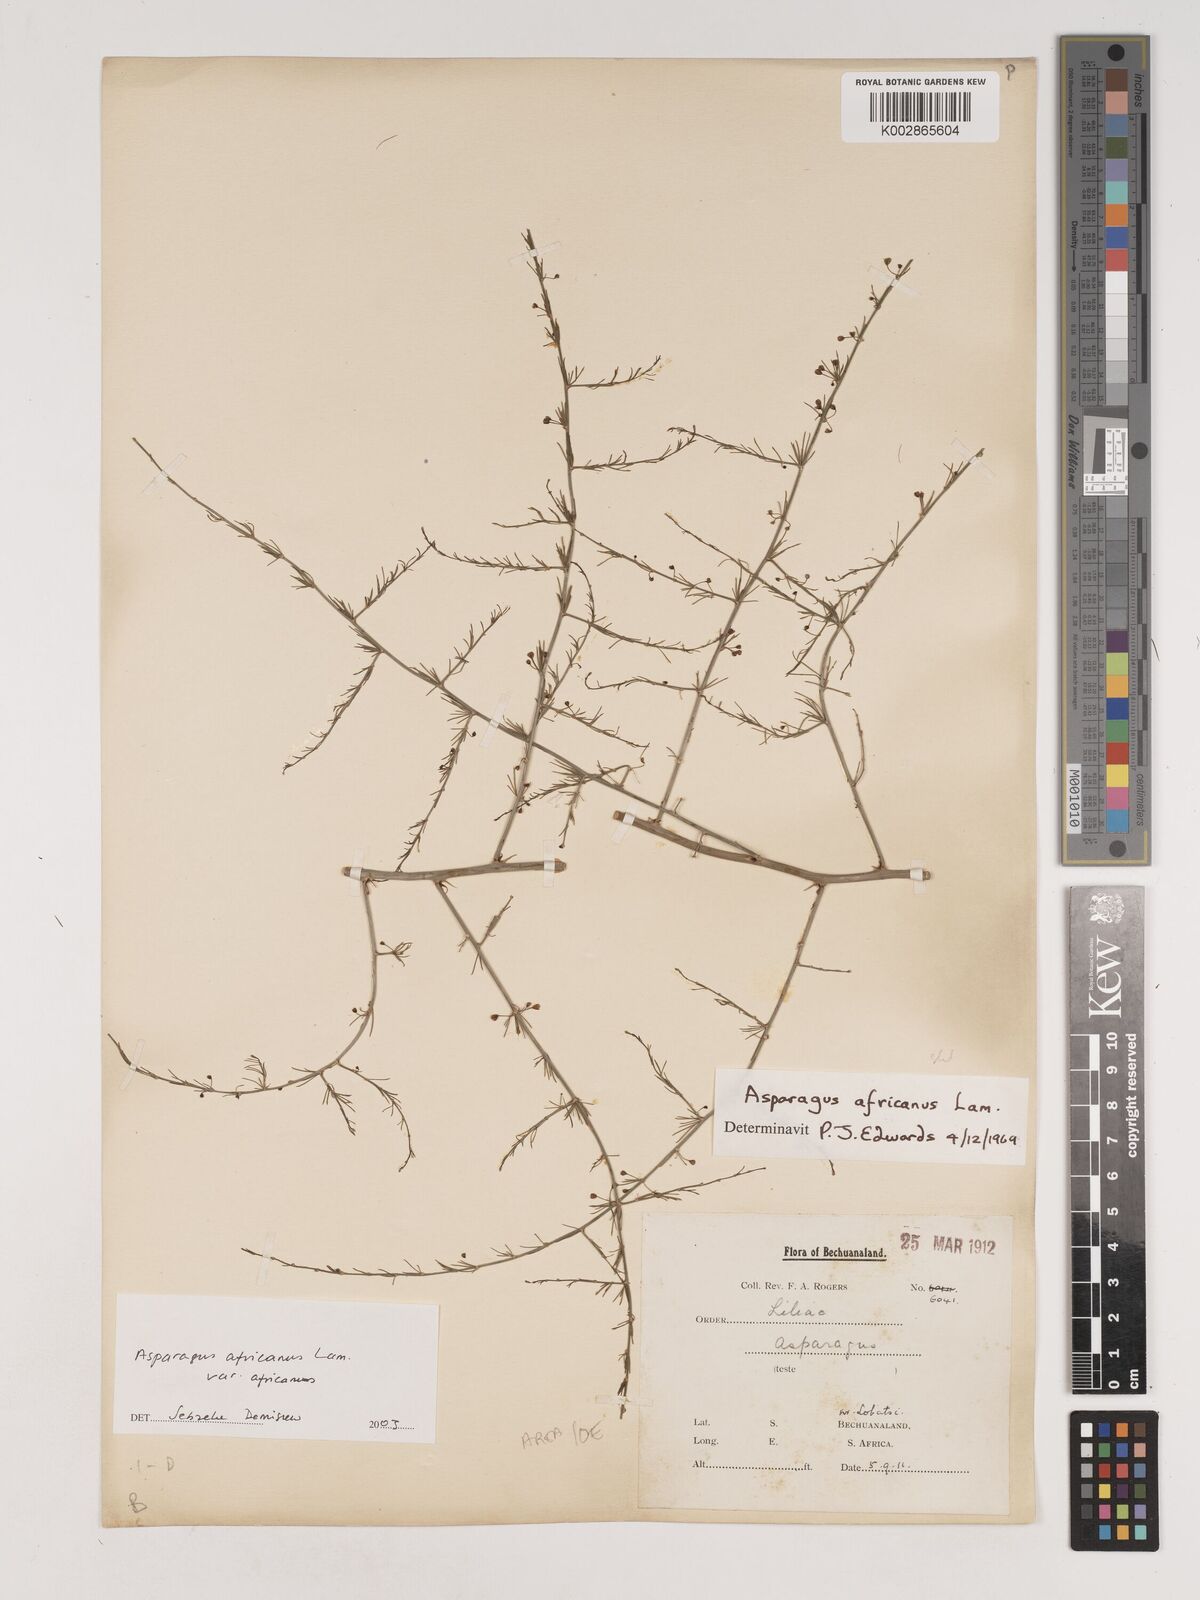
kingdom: Plantae
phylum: Tracheophyta
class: Liliopsida
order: Asparagales
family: Asparagaceae
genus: Asparagus
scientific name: Asparagus africanus
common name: Asparagus-fern
